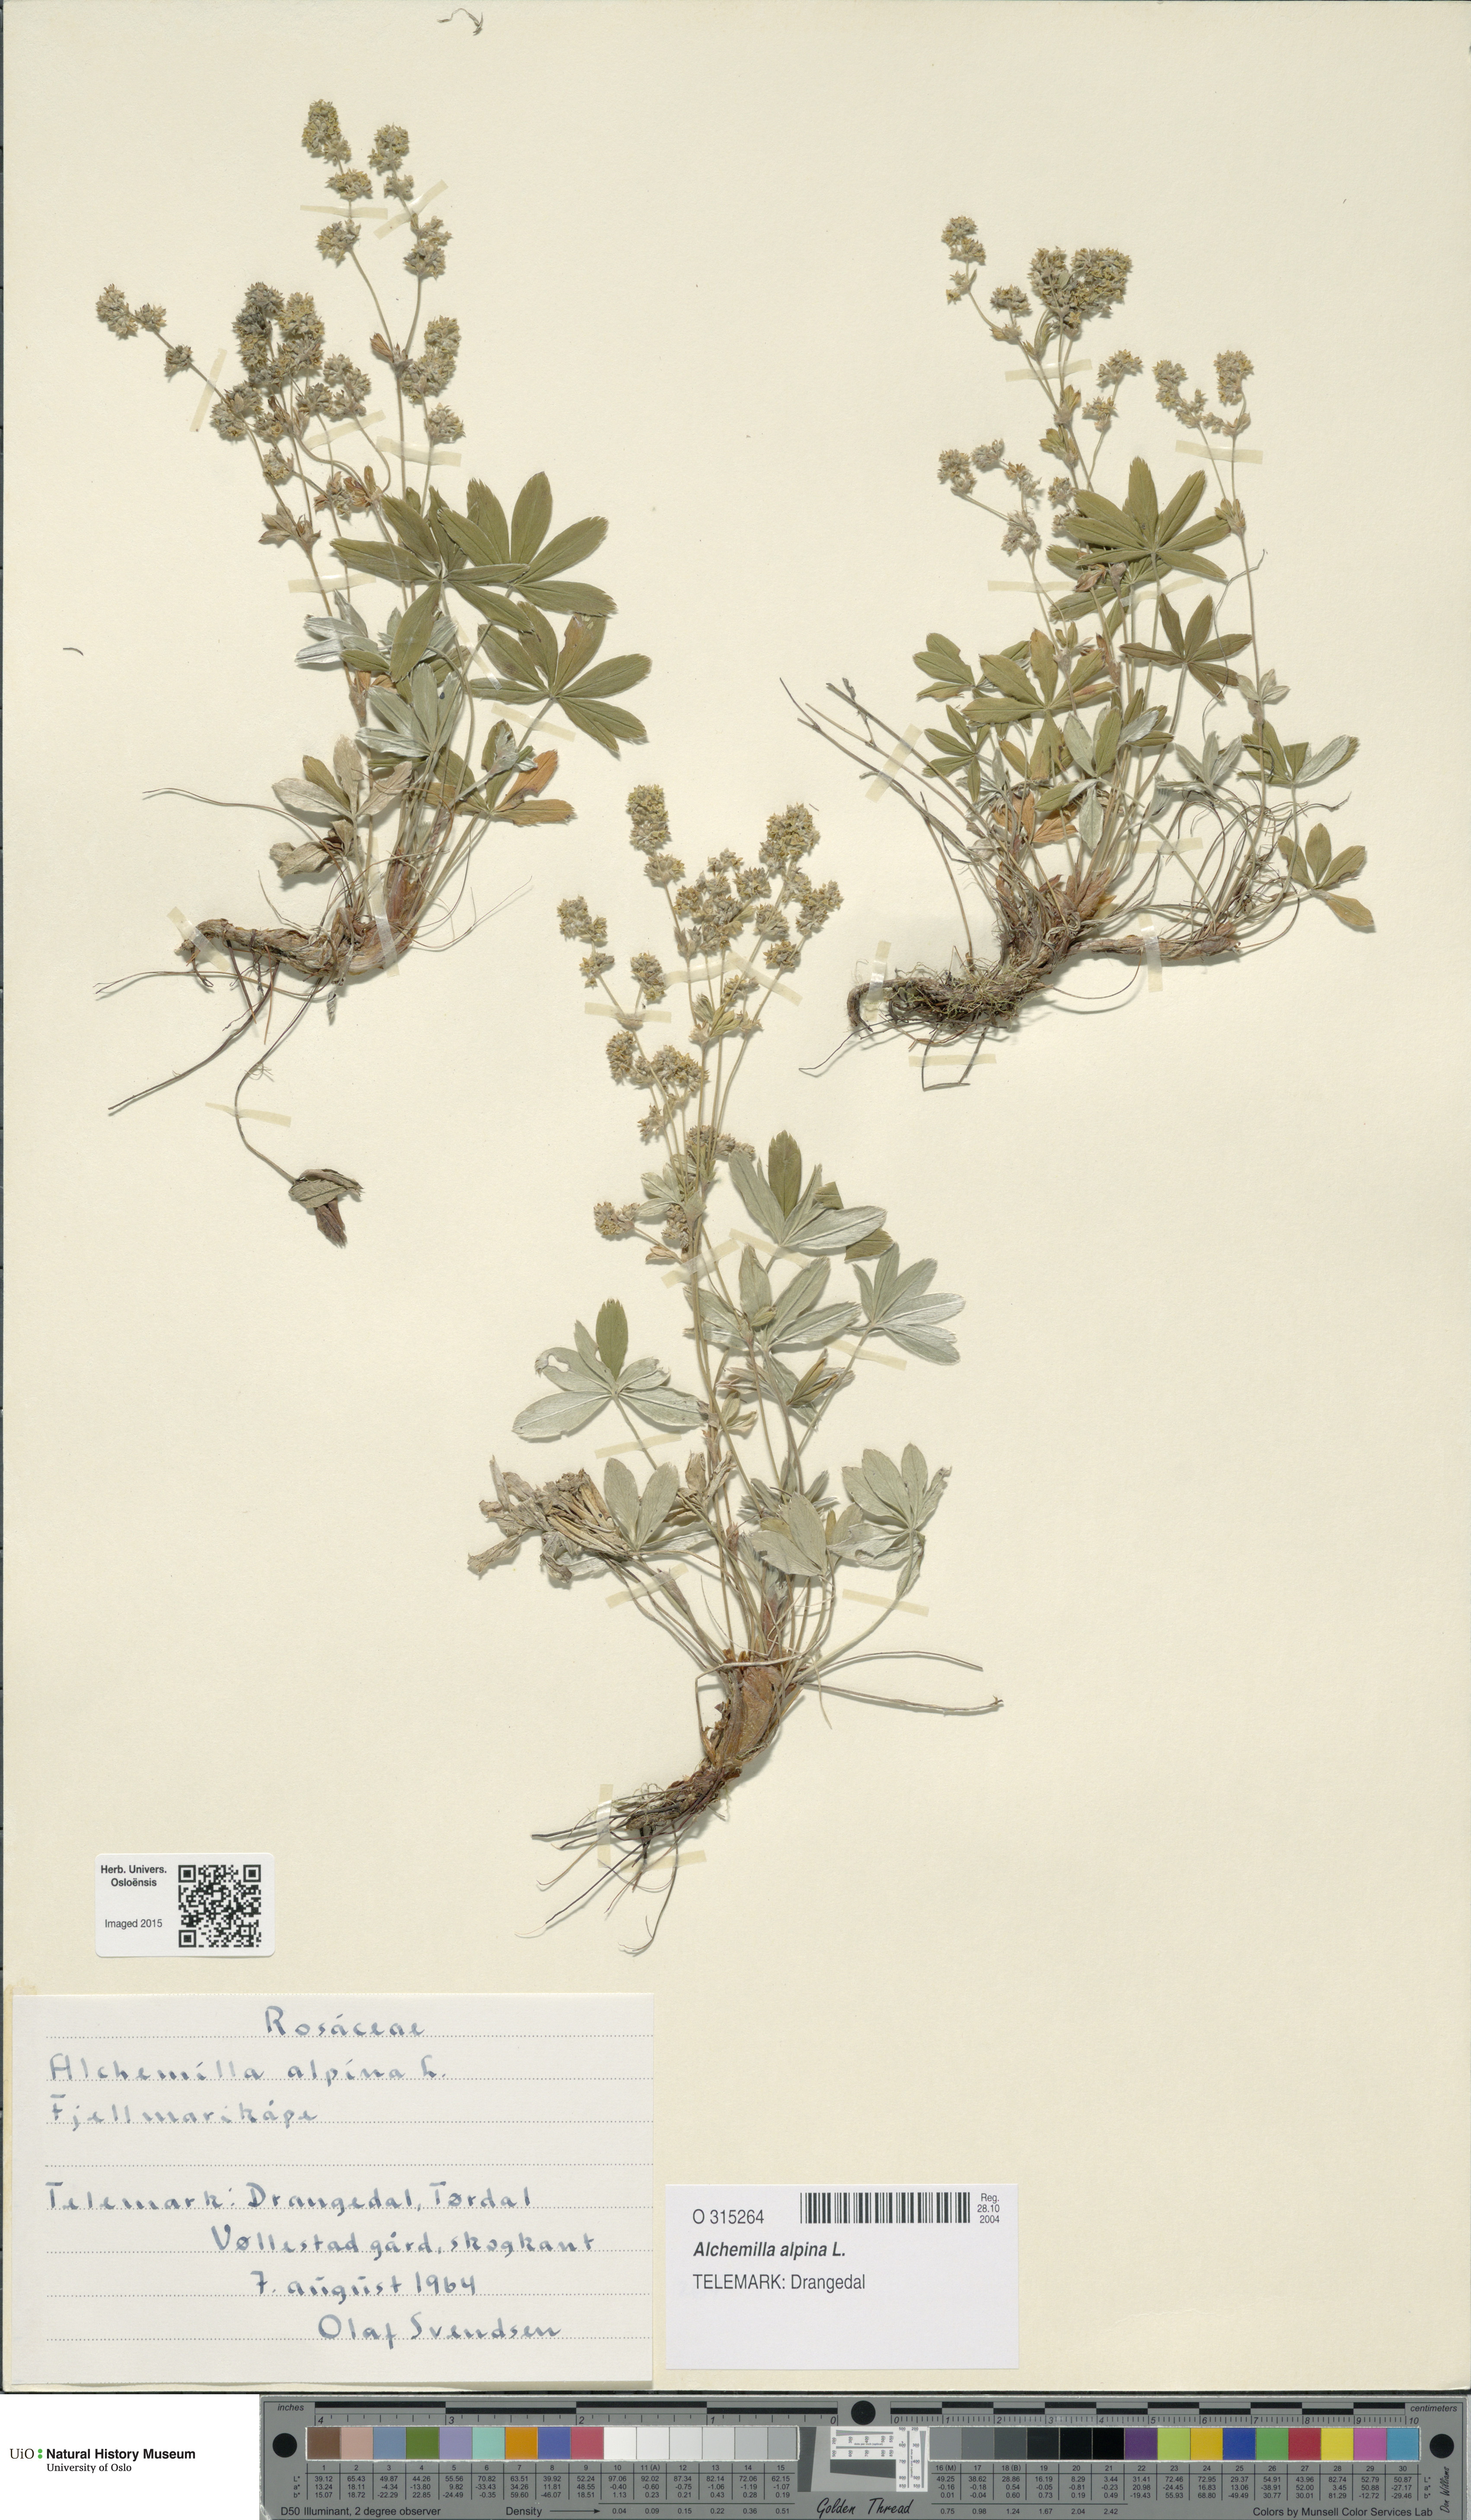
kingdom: Plantae
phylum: Tracheophyta
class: Magnoliopsida
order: Rosales
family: Rosaceae
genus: Alchemilla
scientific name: Alchemilla alpina
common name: Alpine lady's-mantle
